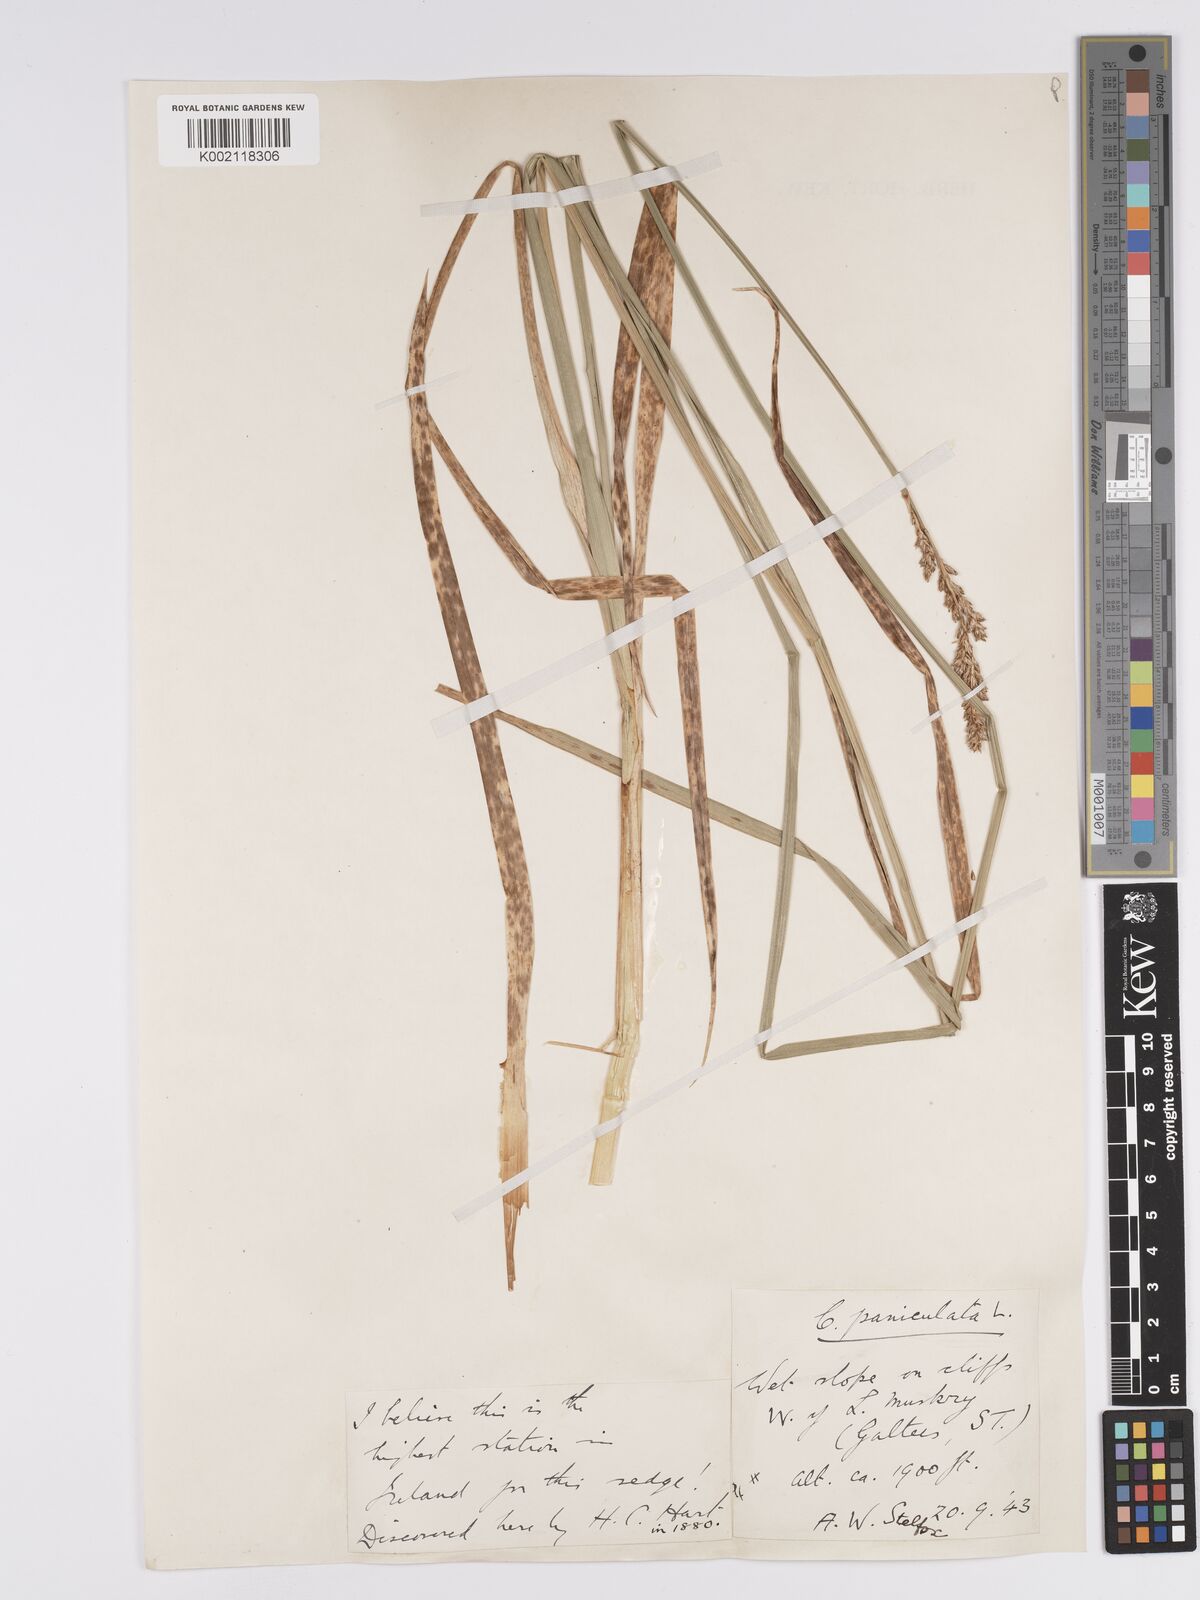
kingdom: Plantae
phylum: Tracheophyta
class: Liliopsida
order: Poales
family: Cyperaceae
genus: Carex
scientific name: Carex paniculata
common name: Greater tussock-sedge
